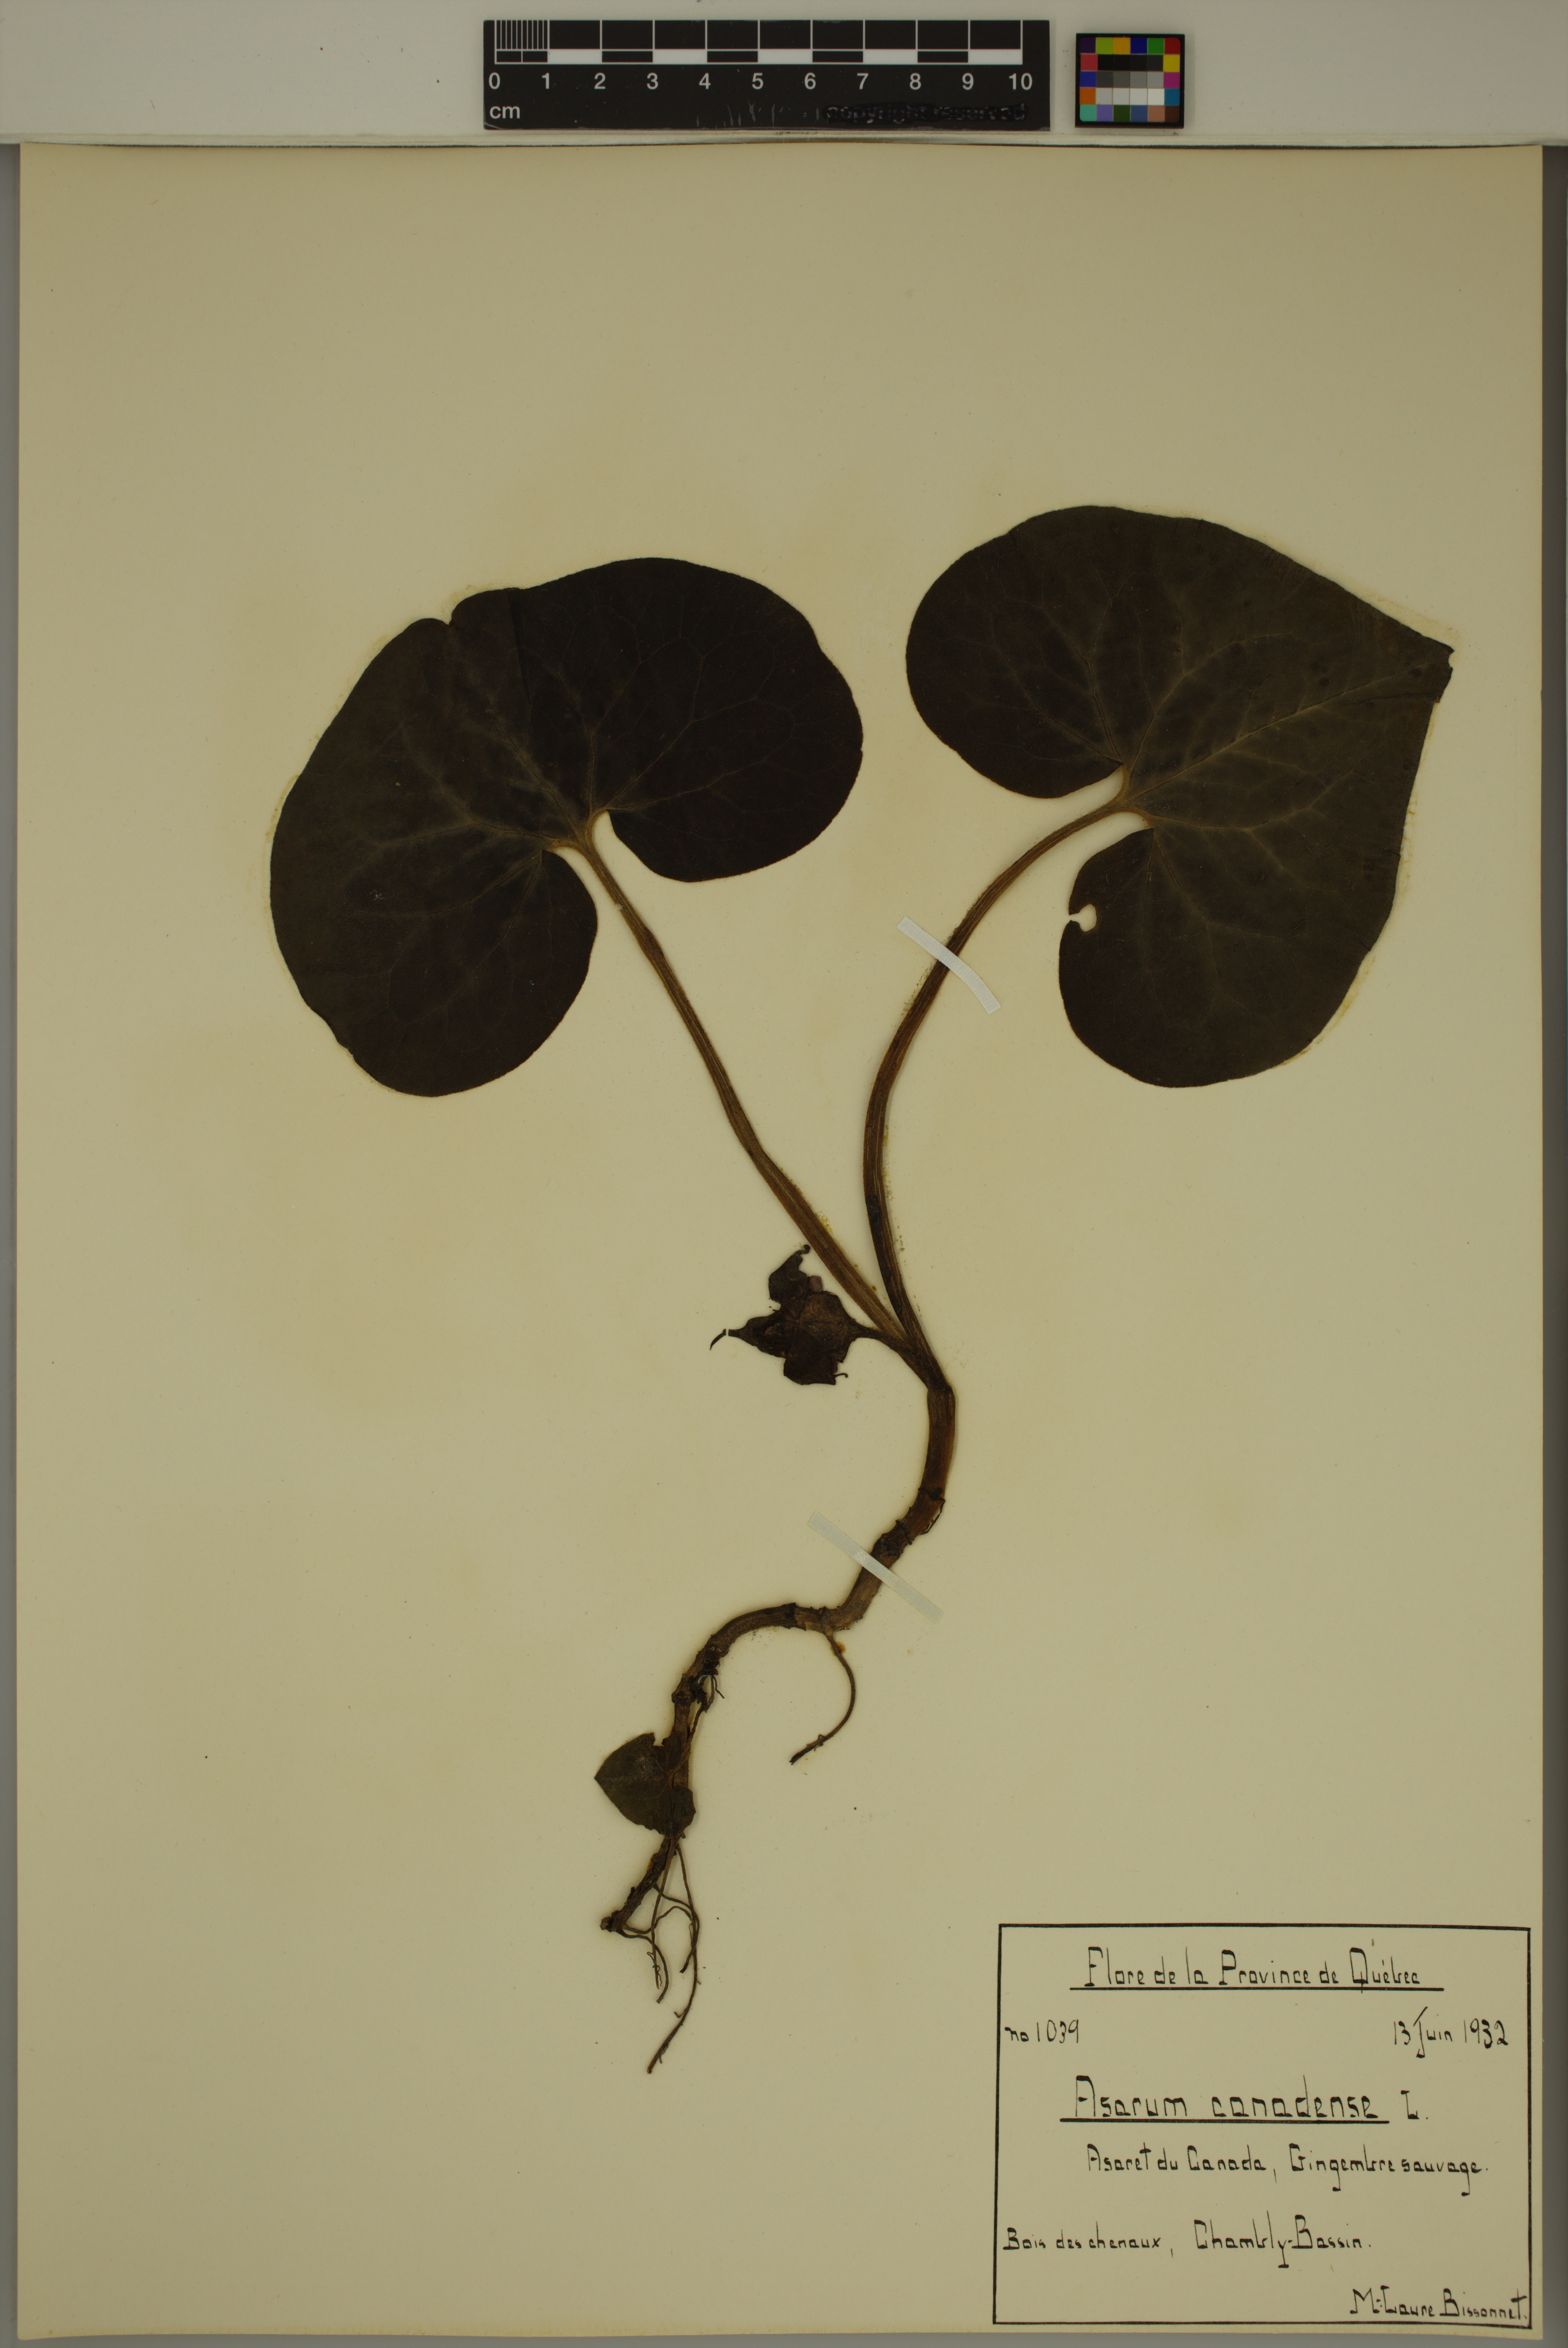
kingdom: Plantae
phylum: Tracheophyta
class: Magnoliopsida
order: Piperales
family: Aristolochiaceae
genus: Asarum
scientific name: Asarum canadense
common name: Wild ginger
